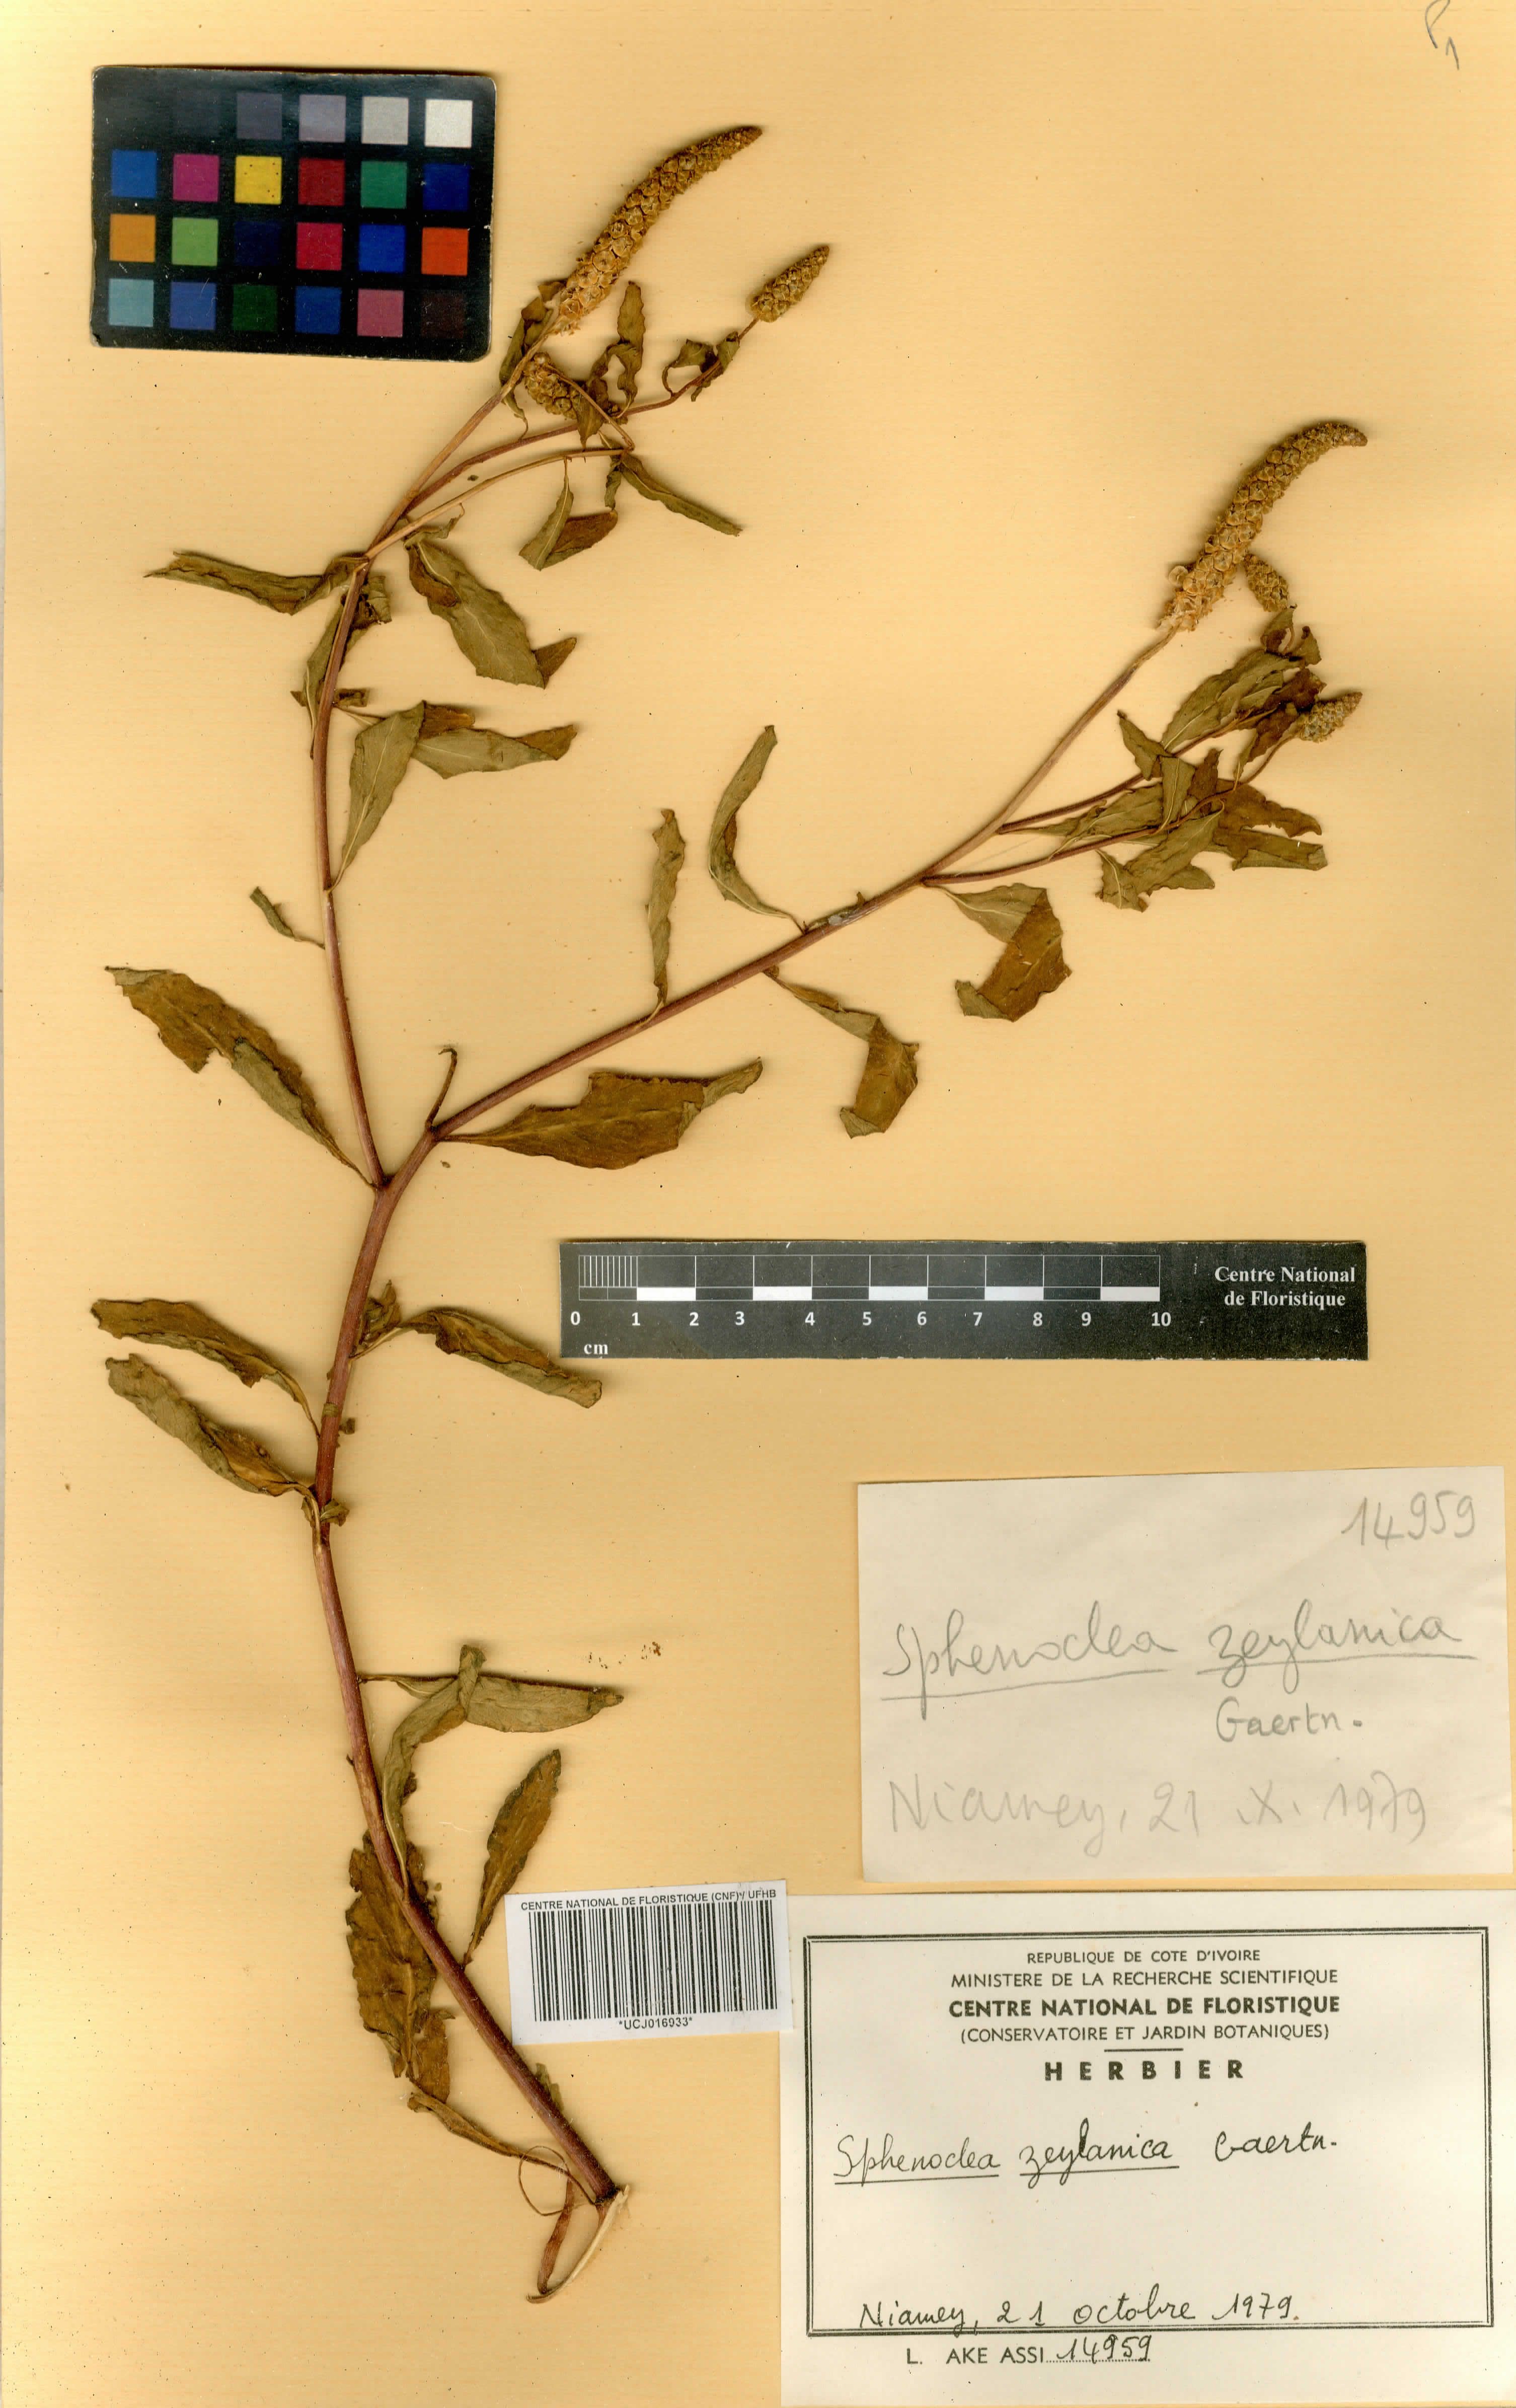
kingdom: Plantae
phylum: Tracheophyta
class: Magnoliopsida
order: Solanales
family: Sphenocleaceae
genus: Sphenoclea
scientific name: Sphenoclea zeylanica
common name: Chickenspike
